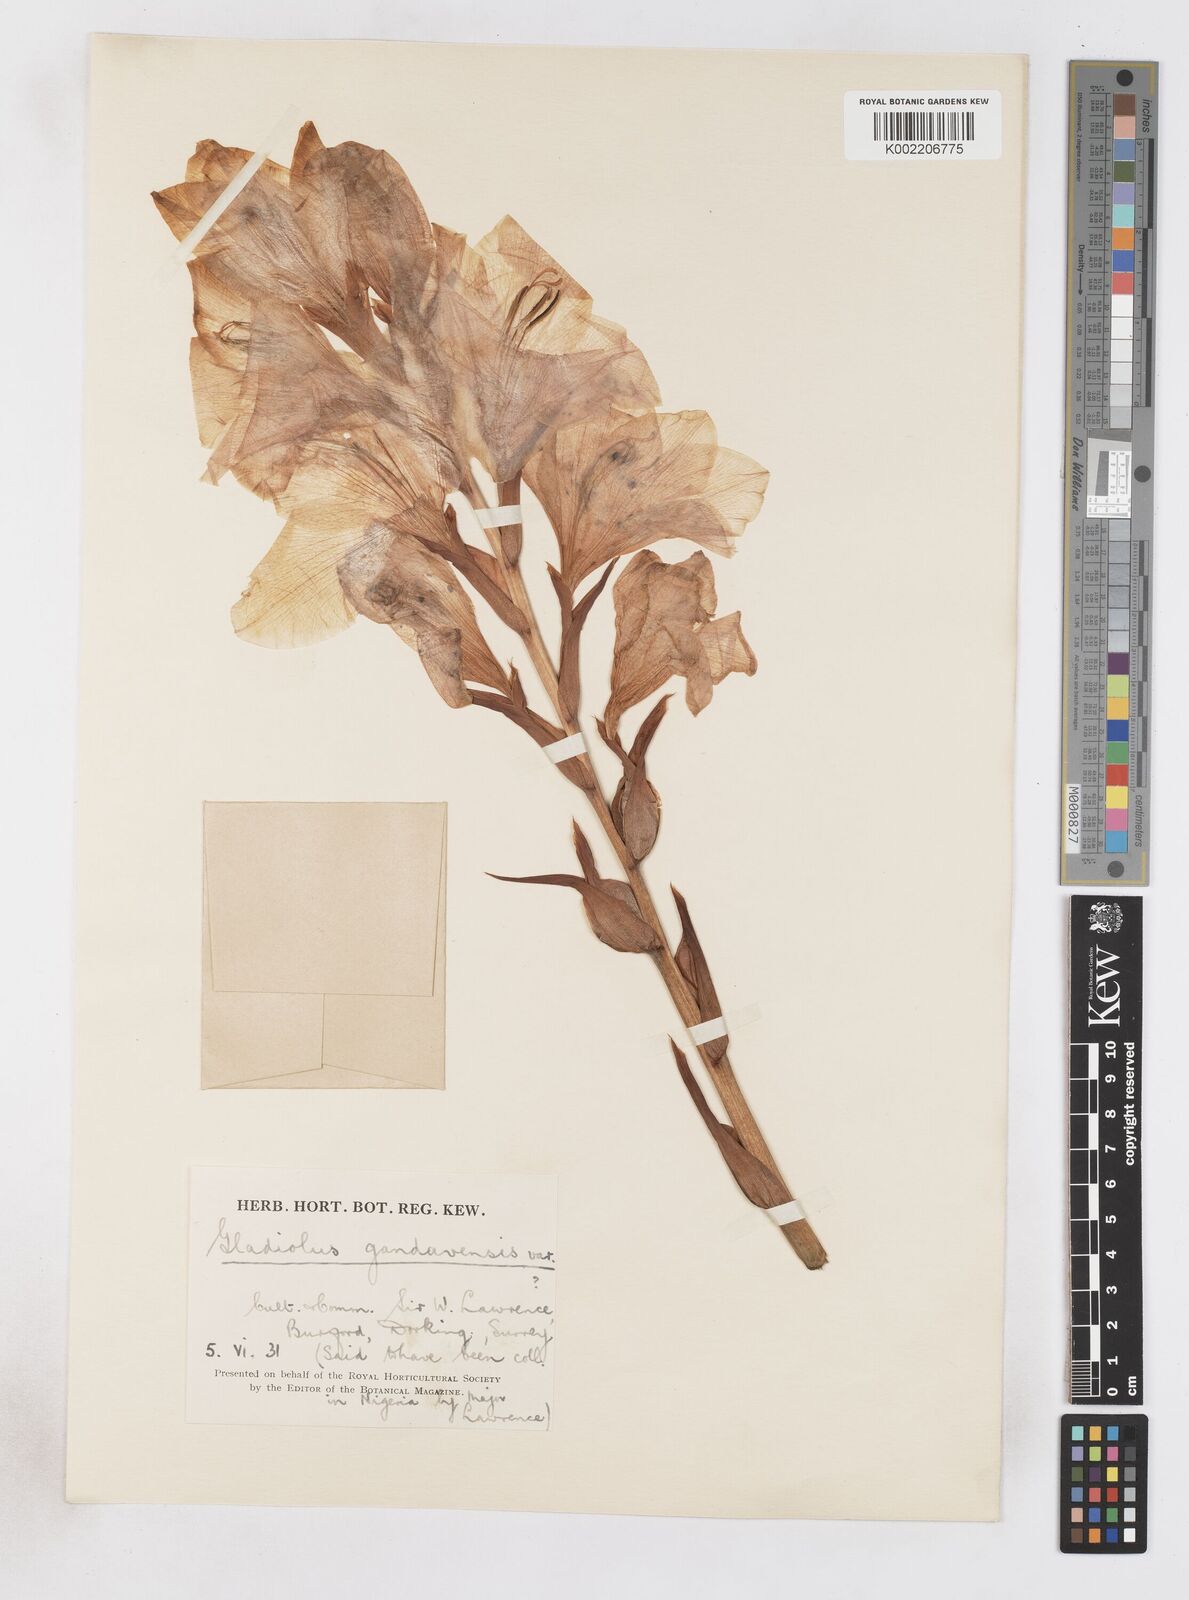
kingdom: Plantae
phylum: Tracheophyta
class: Liliopsida
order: Asparagales
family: Iridaceae
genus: Gladiolus
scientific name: Gladiolus gandavensis
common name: Gladiolus
